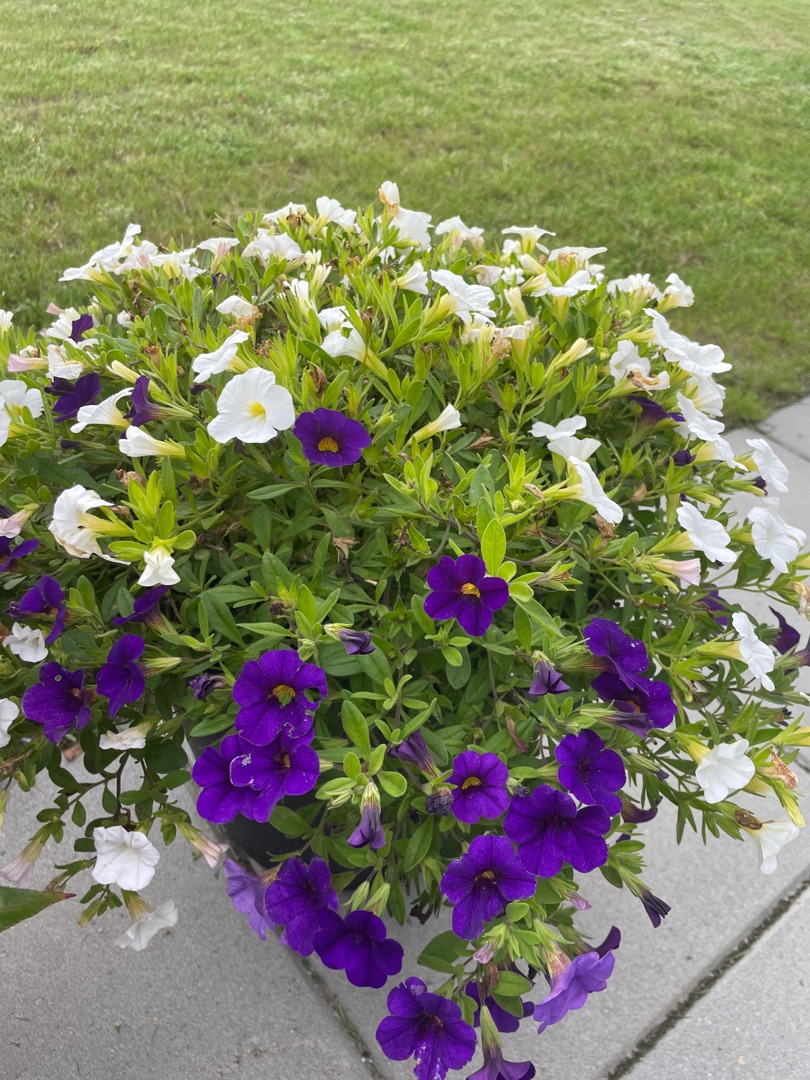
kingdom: Plantae
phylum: Tracheophyta
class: Magnoliopsida
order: Solanales
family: Solanaceae
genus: Petunia
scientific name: Petunia atkinsiana
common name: Have-petunie
